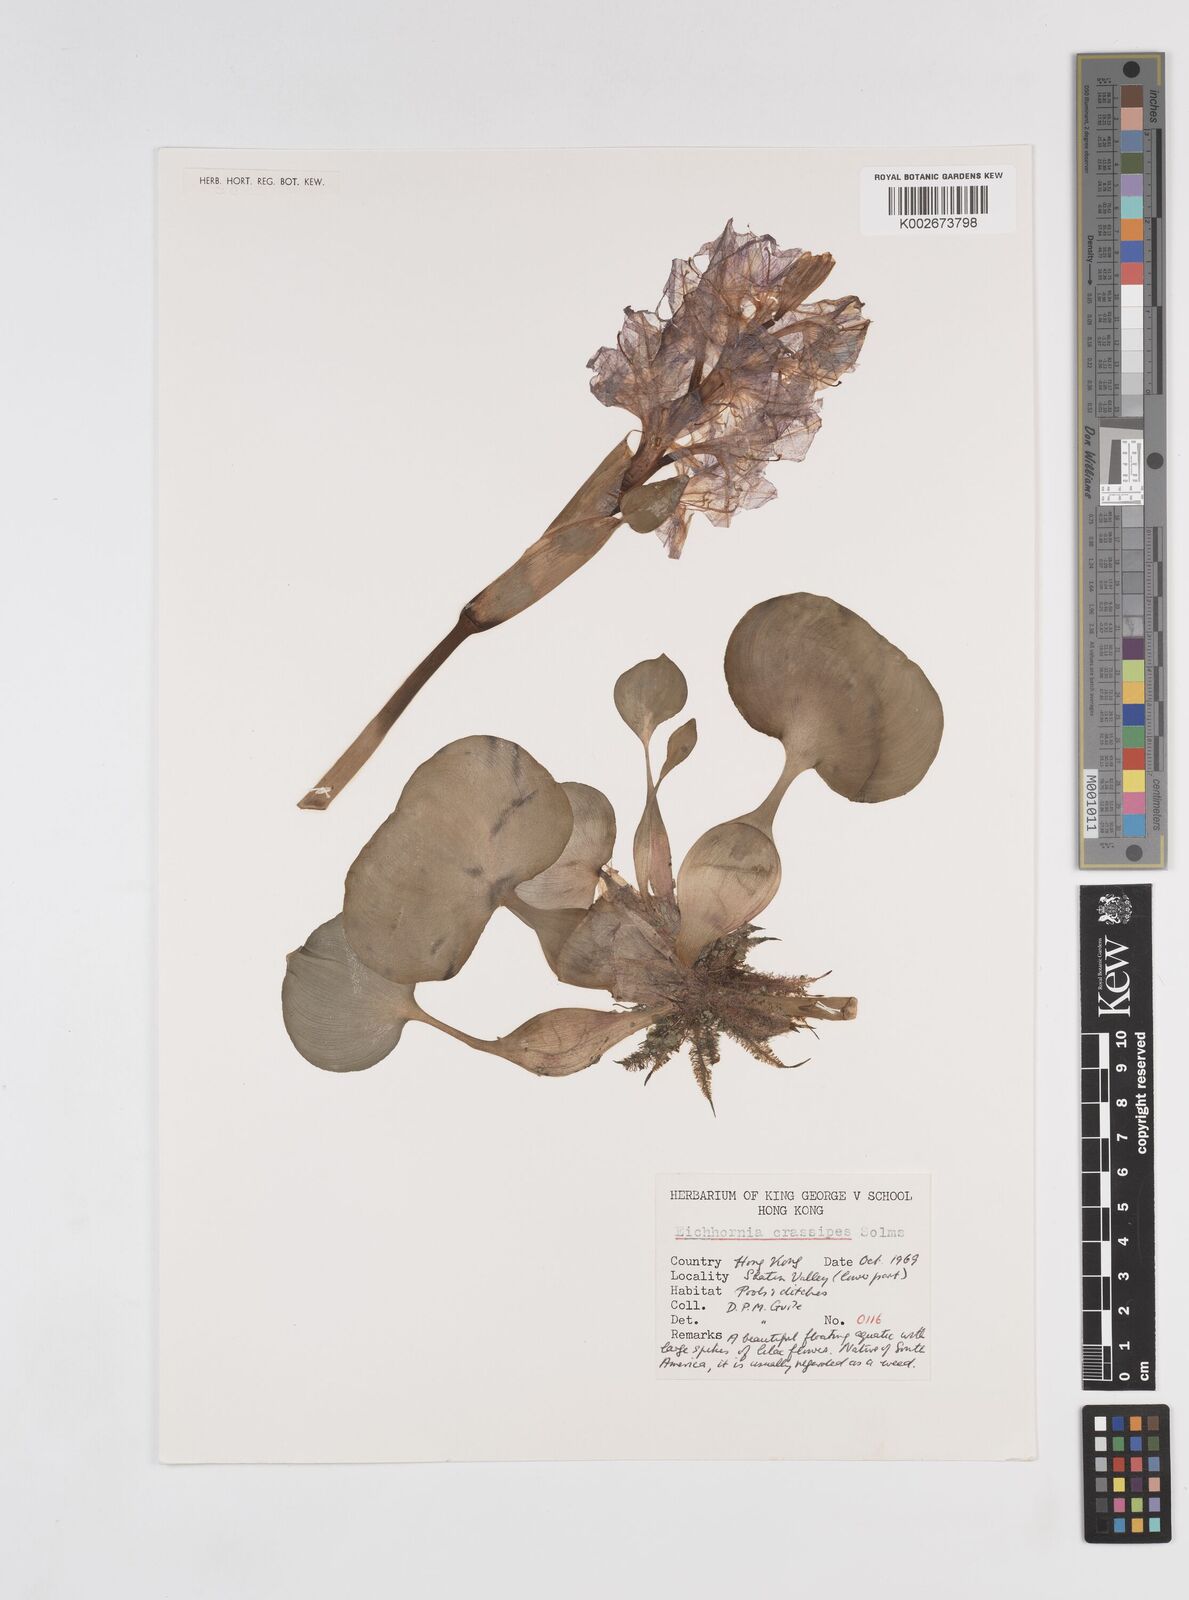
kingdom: Plantae
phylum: Tracheophyta
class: Liliopsida
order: Commelinales
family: Pontederiaceae
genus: Pontederia
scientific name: Pontederia crassipes
